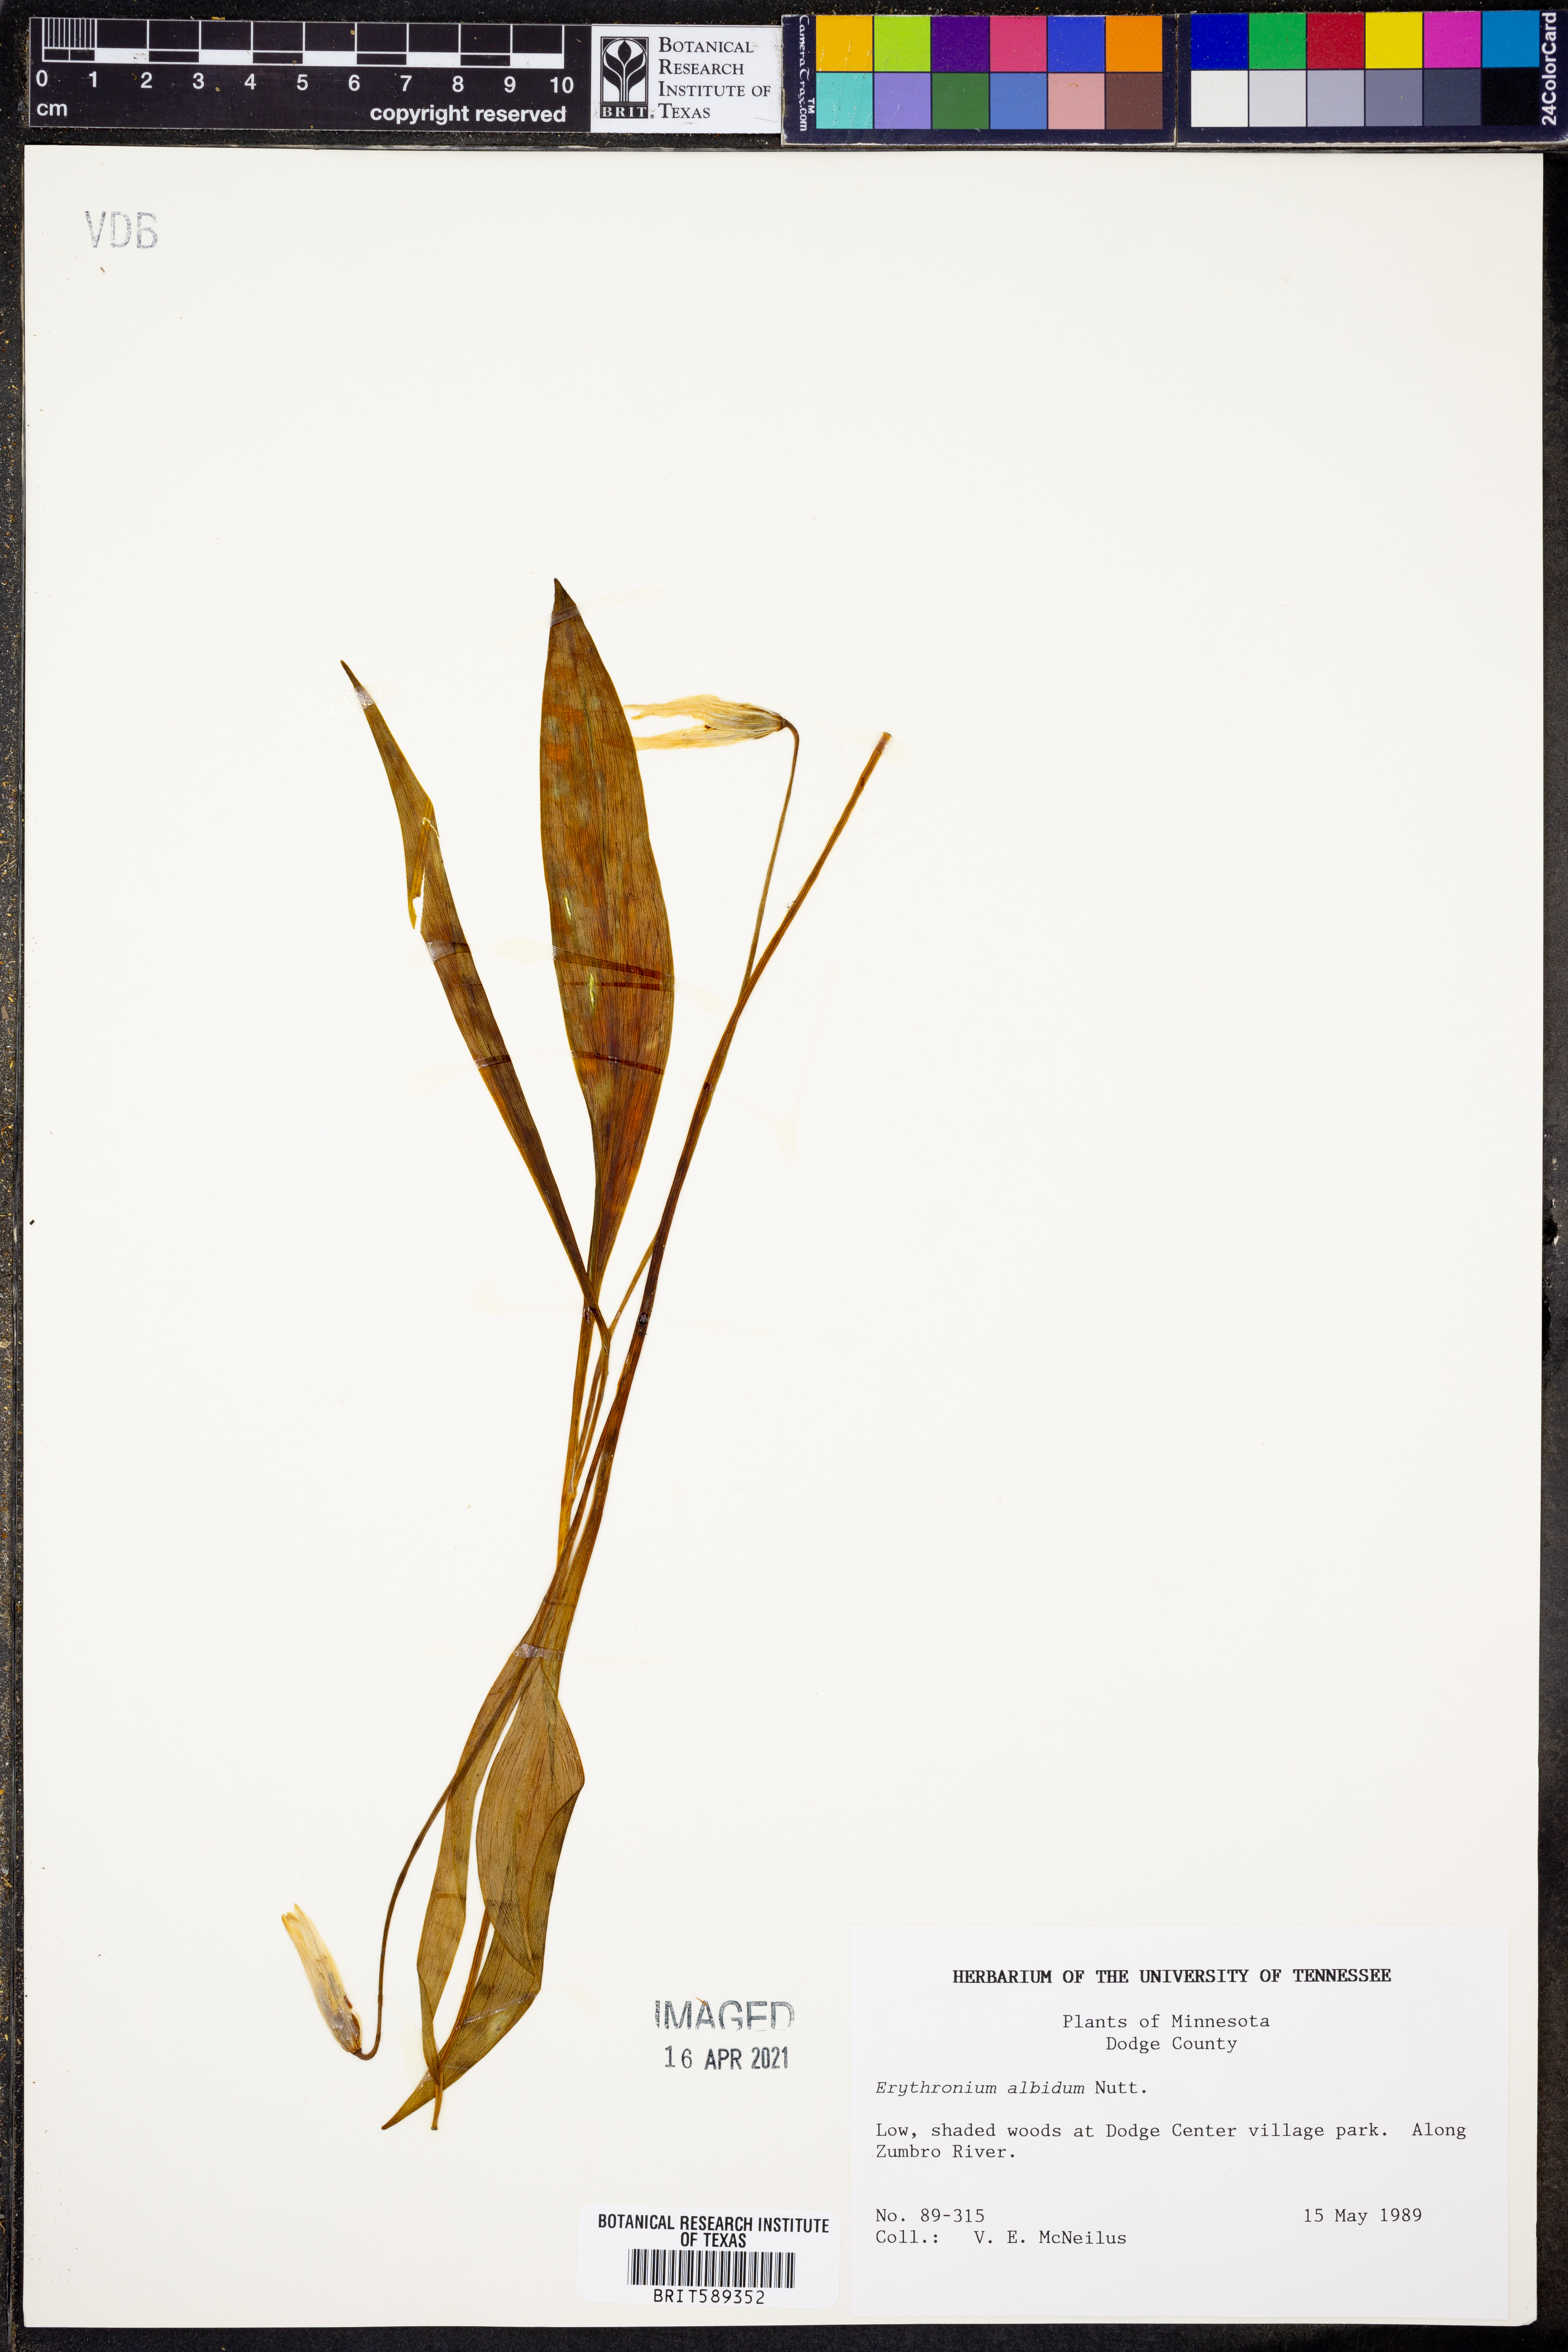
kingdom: Plantae
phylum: Tracheophyta
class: Liliopsida
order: Liliales
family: Liliaceae
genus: Erythronium
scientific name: Erythronium albidum
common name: White trout-lily
